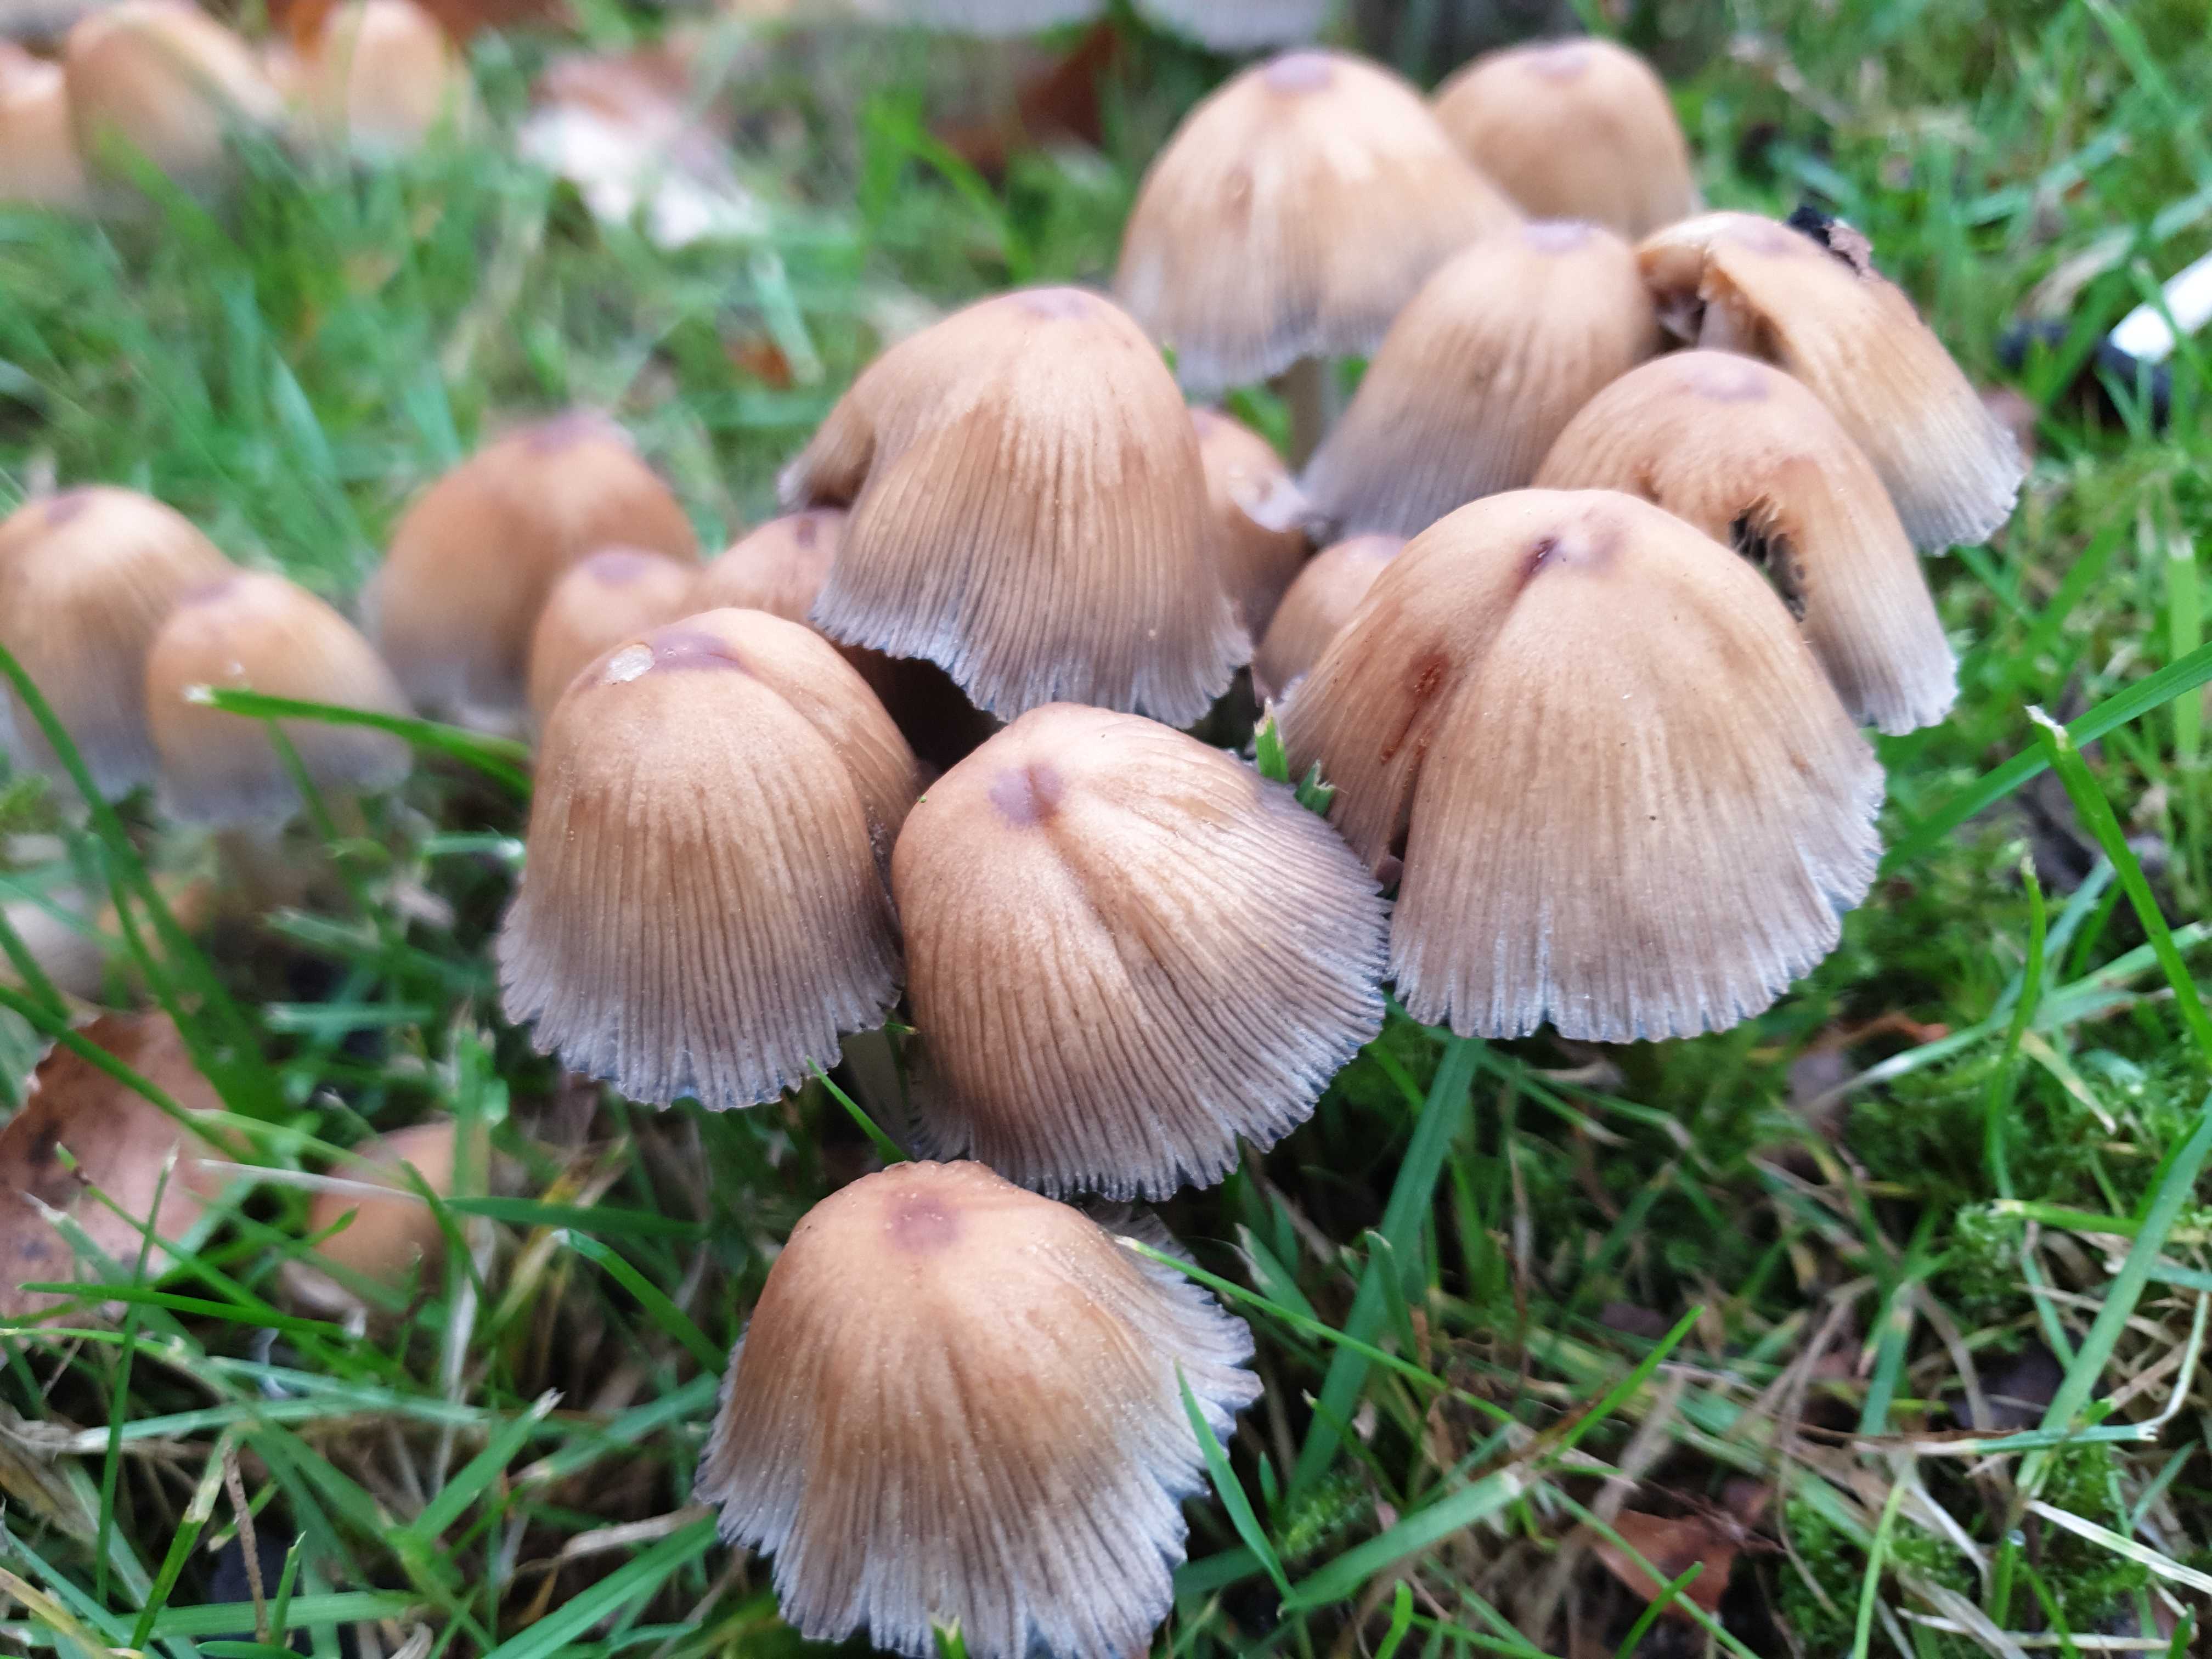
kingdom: Fungi
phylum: Basidiomycota
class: Agaricomycetes
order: Agaricales
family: Psathyrellaceae
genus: Coprinellus
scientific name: Coprinellus micaceus
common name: glimmer-blækhat
